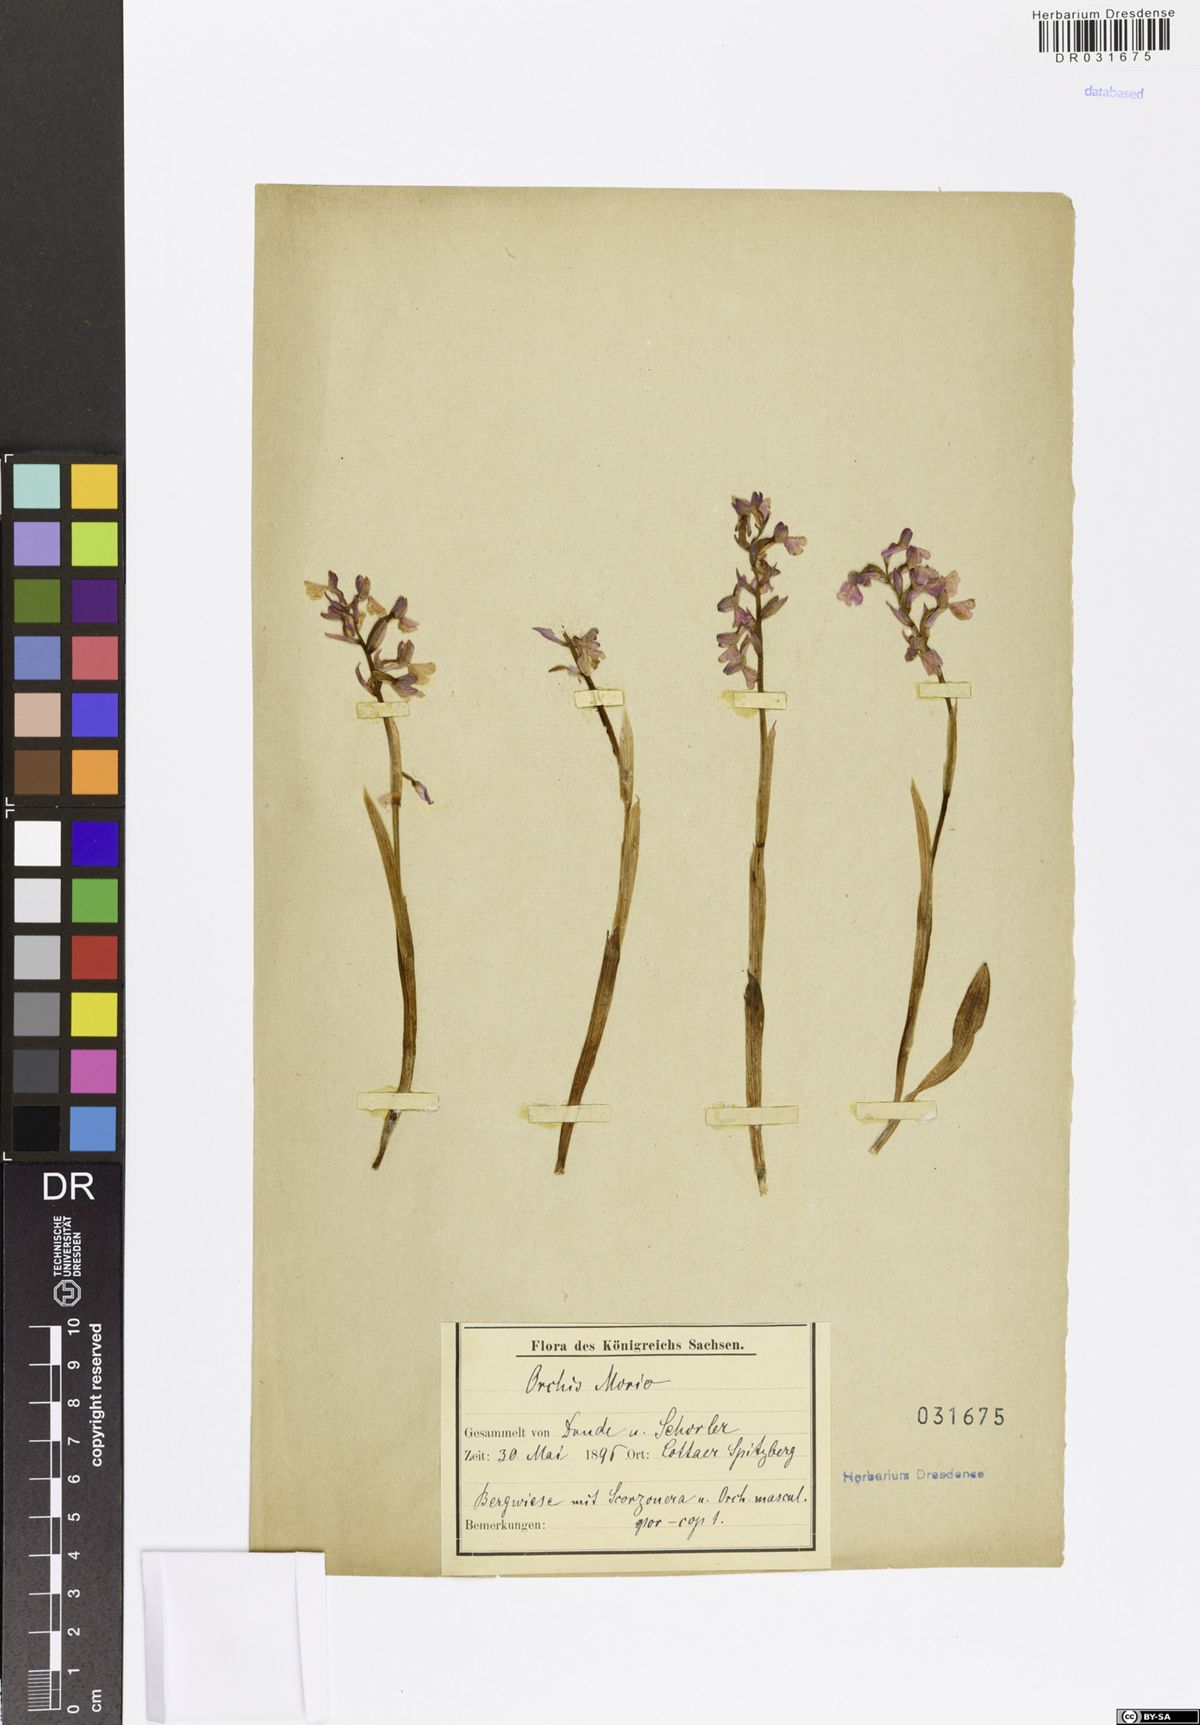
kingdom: Plantae
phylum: Tracheophyta
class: Liliopsida
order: Asparagales
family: Orchidaceae
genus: Anacamptis
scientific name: Anacamptis morio
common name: Green-winged orchid
